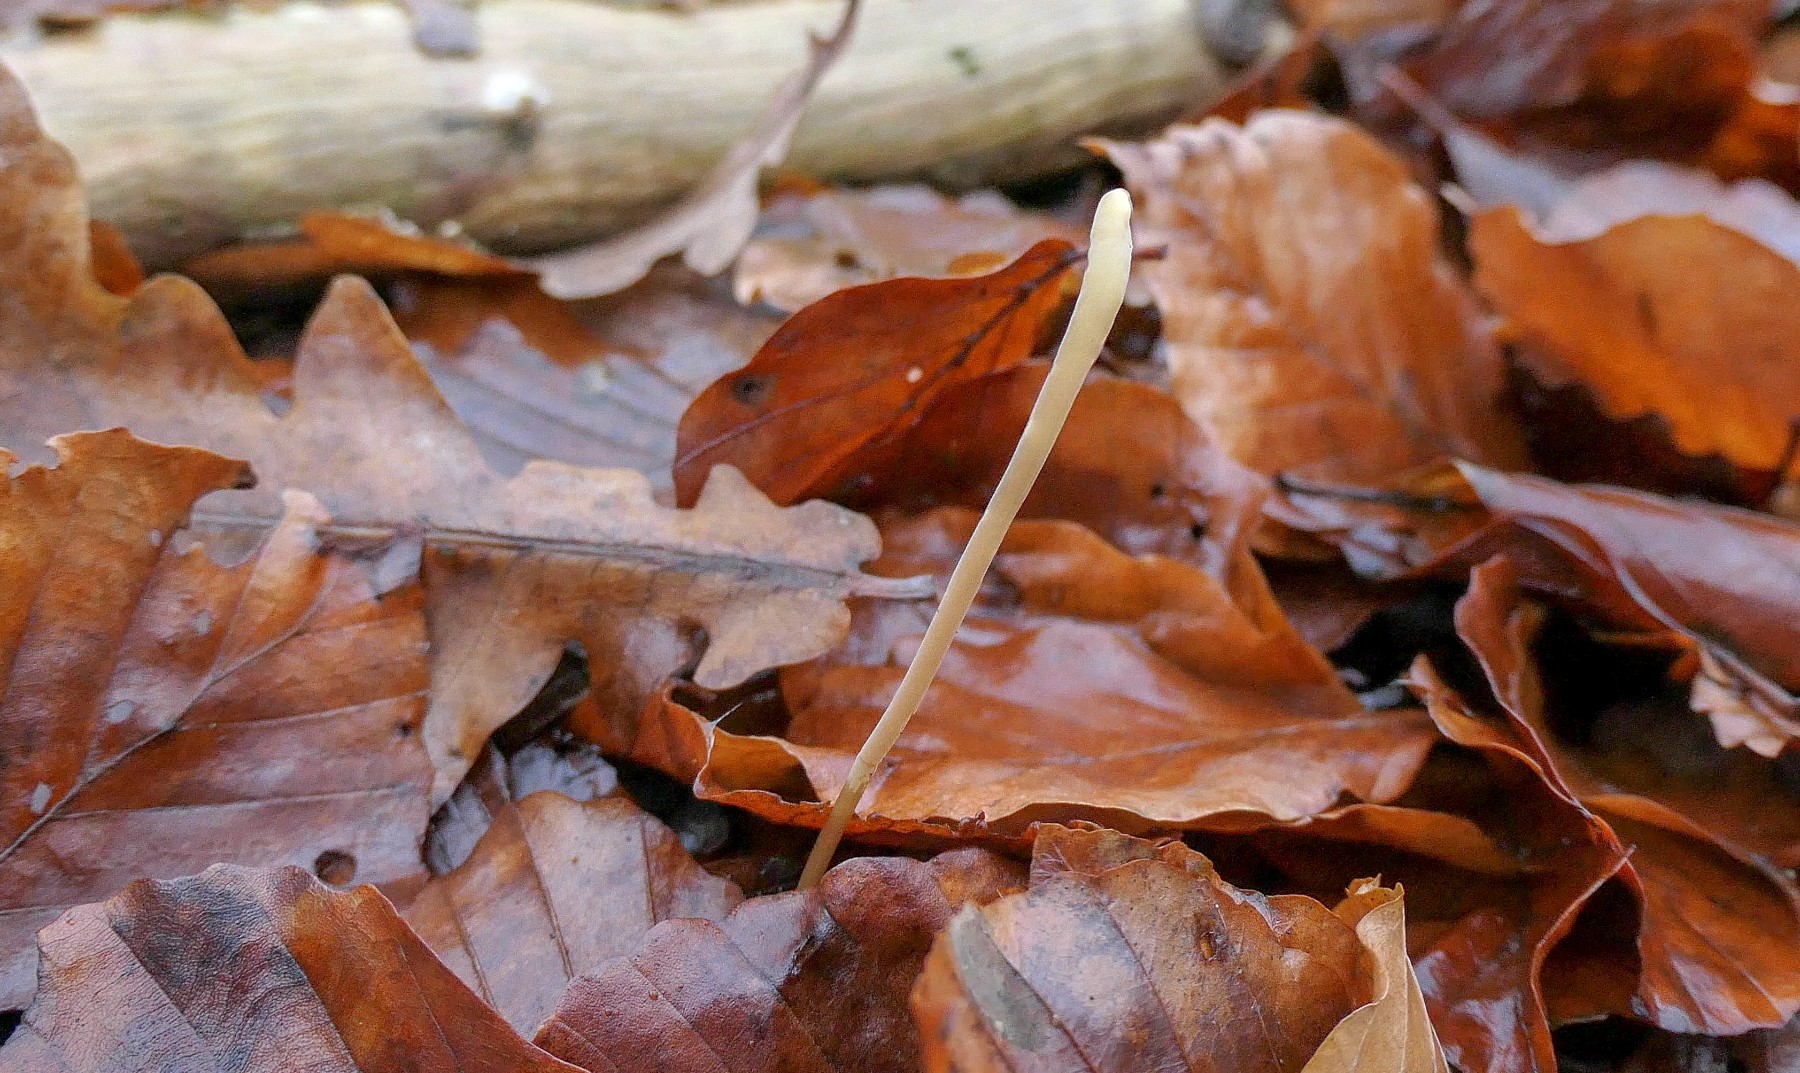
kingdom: Fungi
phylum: Basidiomycota
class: Agaricomycetes
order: Agaricales
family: Typhulaceae
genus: Typhula
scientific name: Typhula fistulosa
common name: pibet rørkølle
